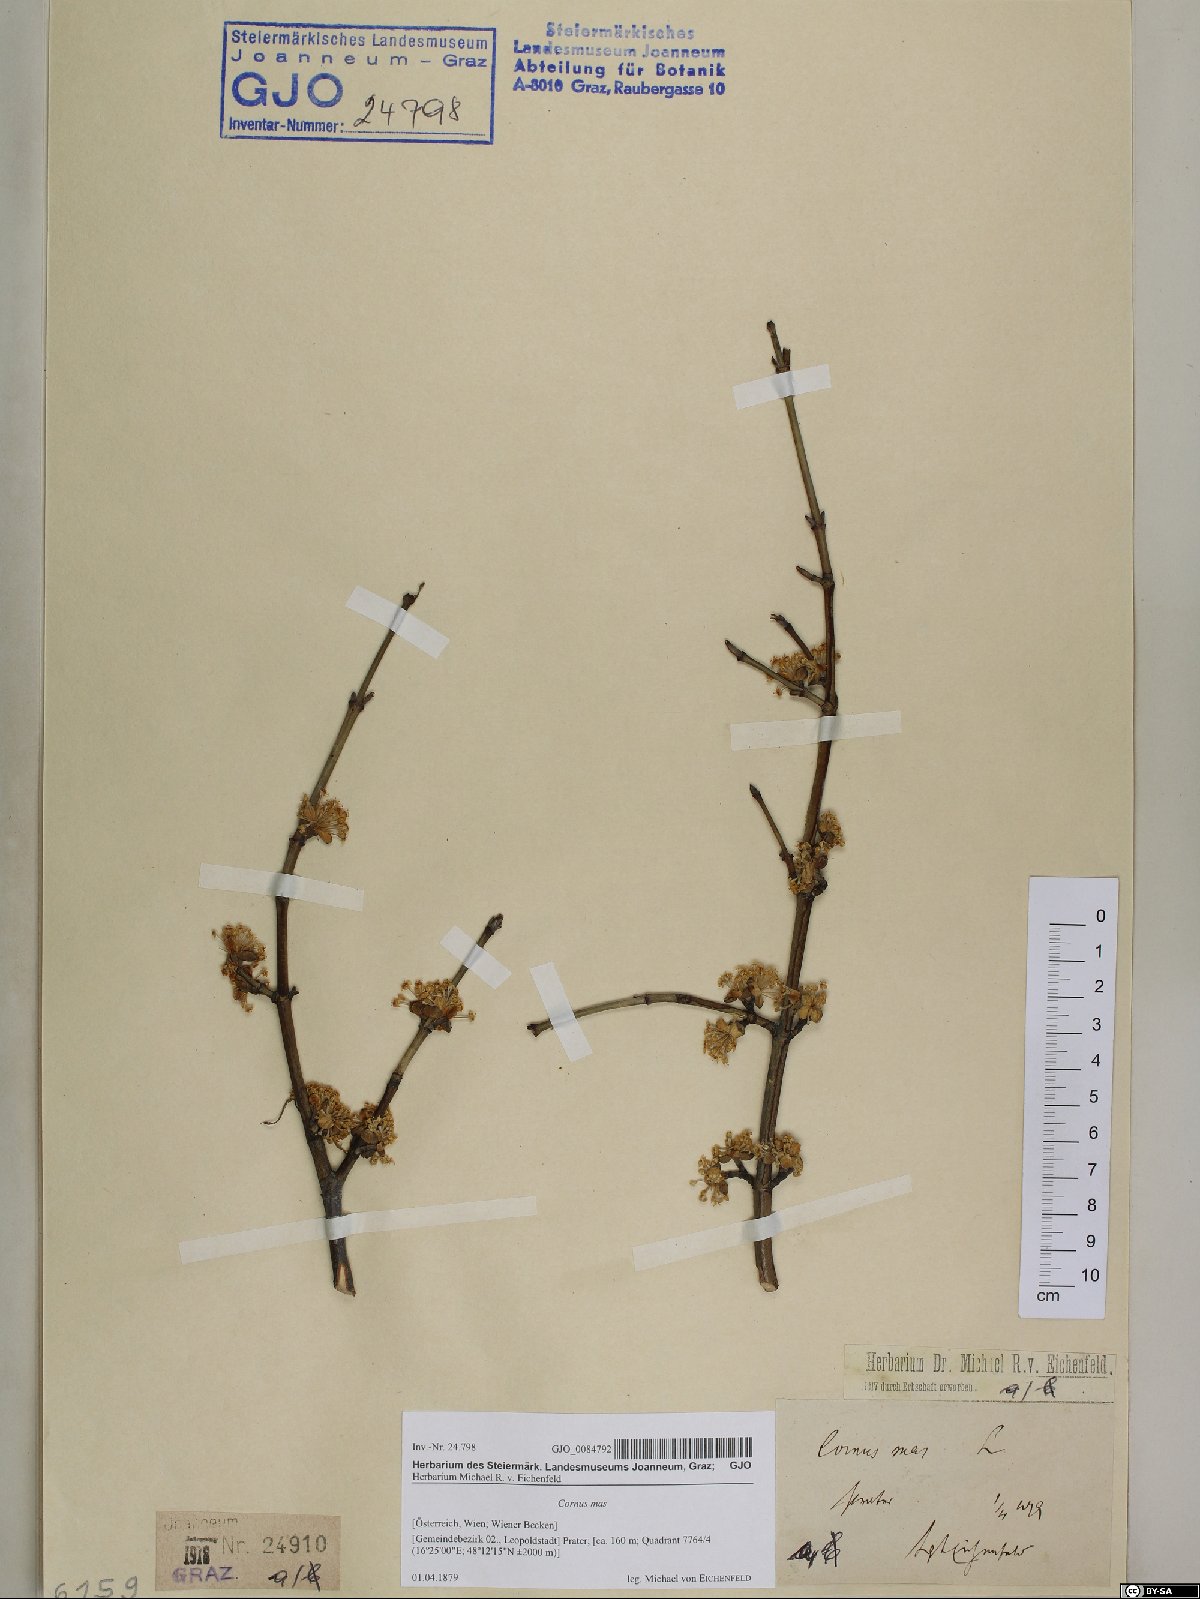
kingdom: Plantae
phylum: Tracheophyta
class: Magnoliopsida
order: Cornales
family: Cornaceae
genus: Cornus
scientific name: Cornus mas
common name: Cornelian-cherry
